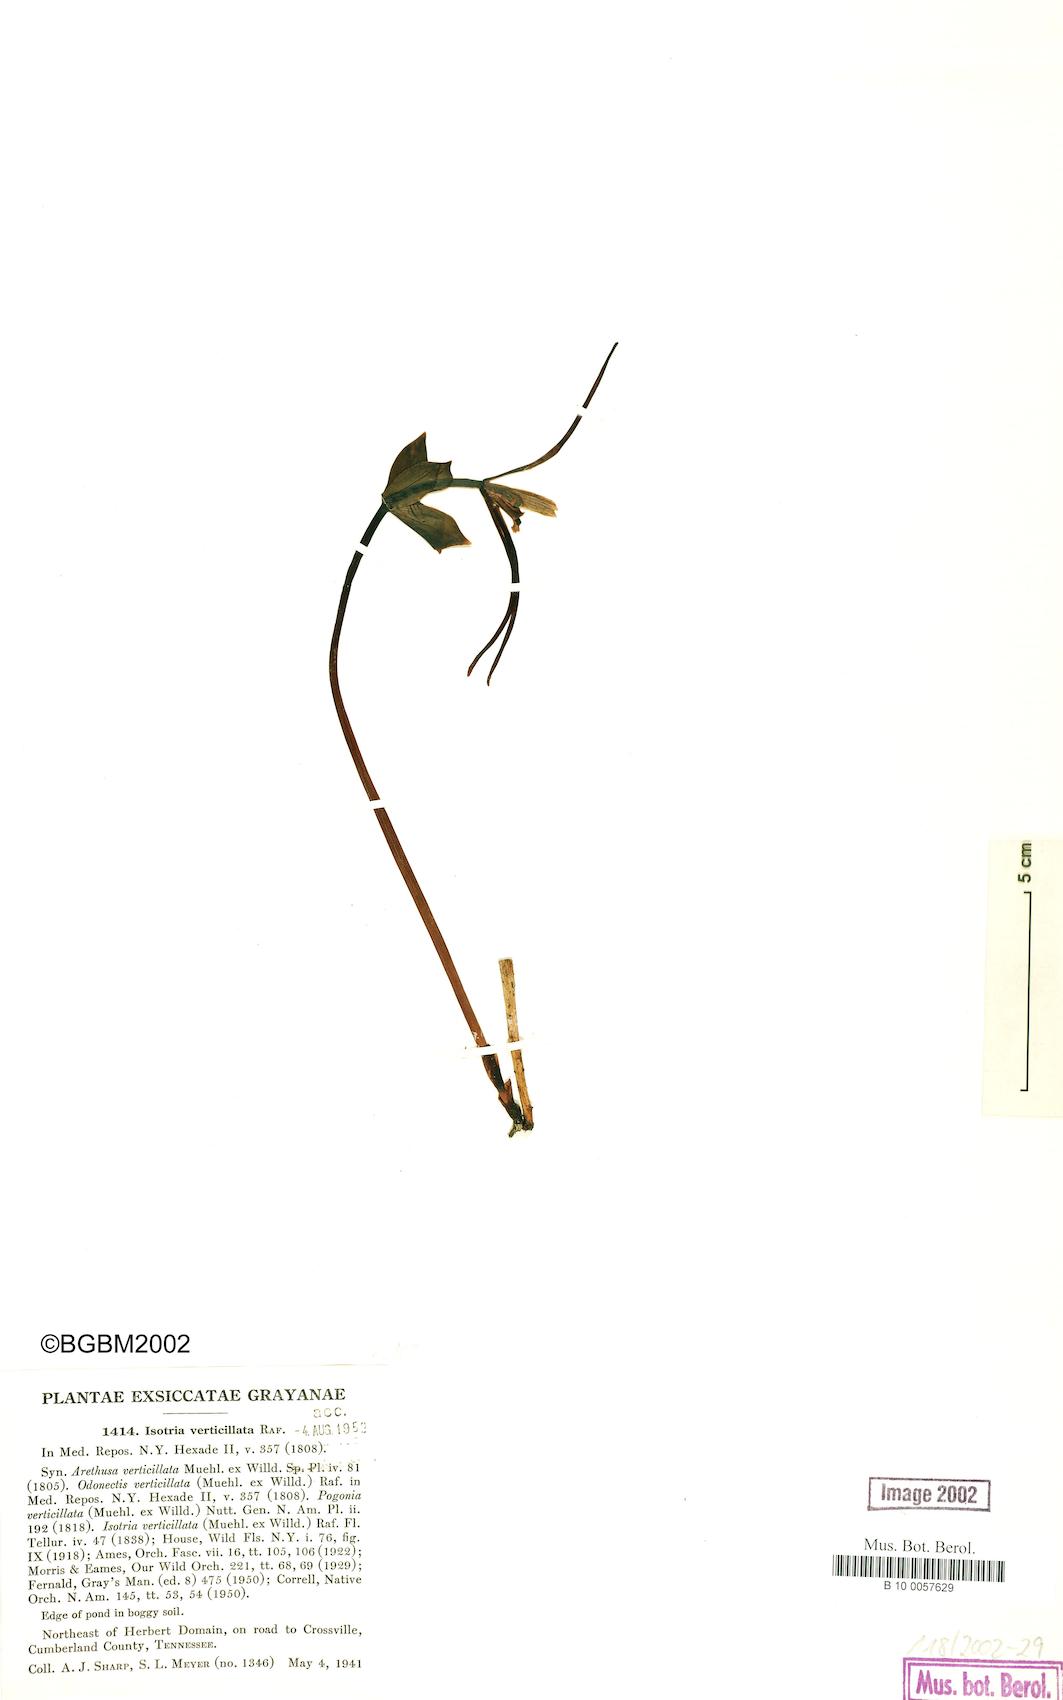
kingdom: Plantae
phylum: Tracheophyta
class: Liliopsida
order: Asparagales
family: Orchidaceae
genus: Isotria
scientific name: Isotria verticillata
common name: Large whorled pogonia
